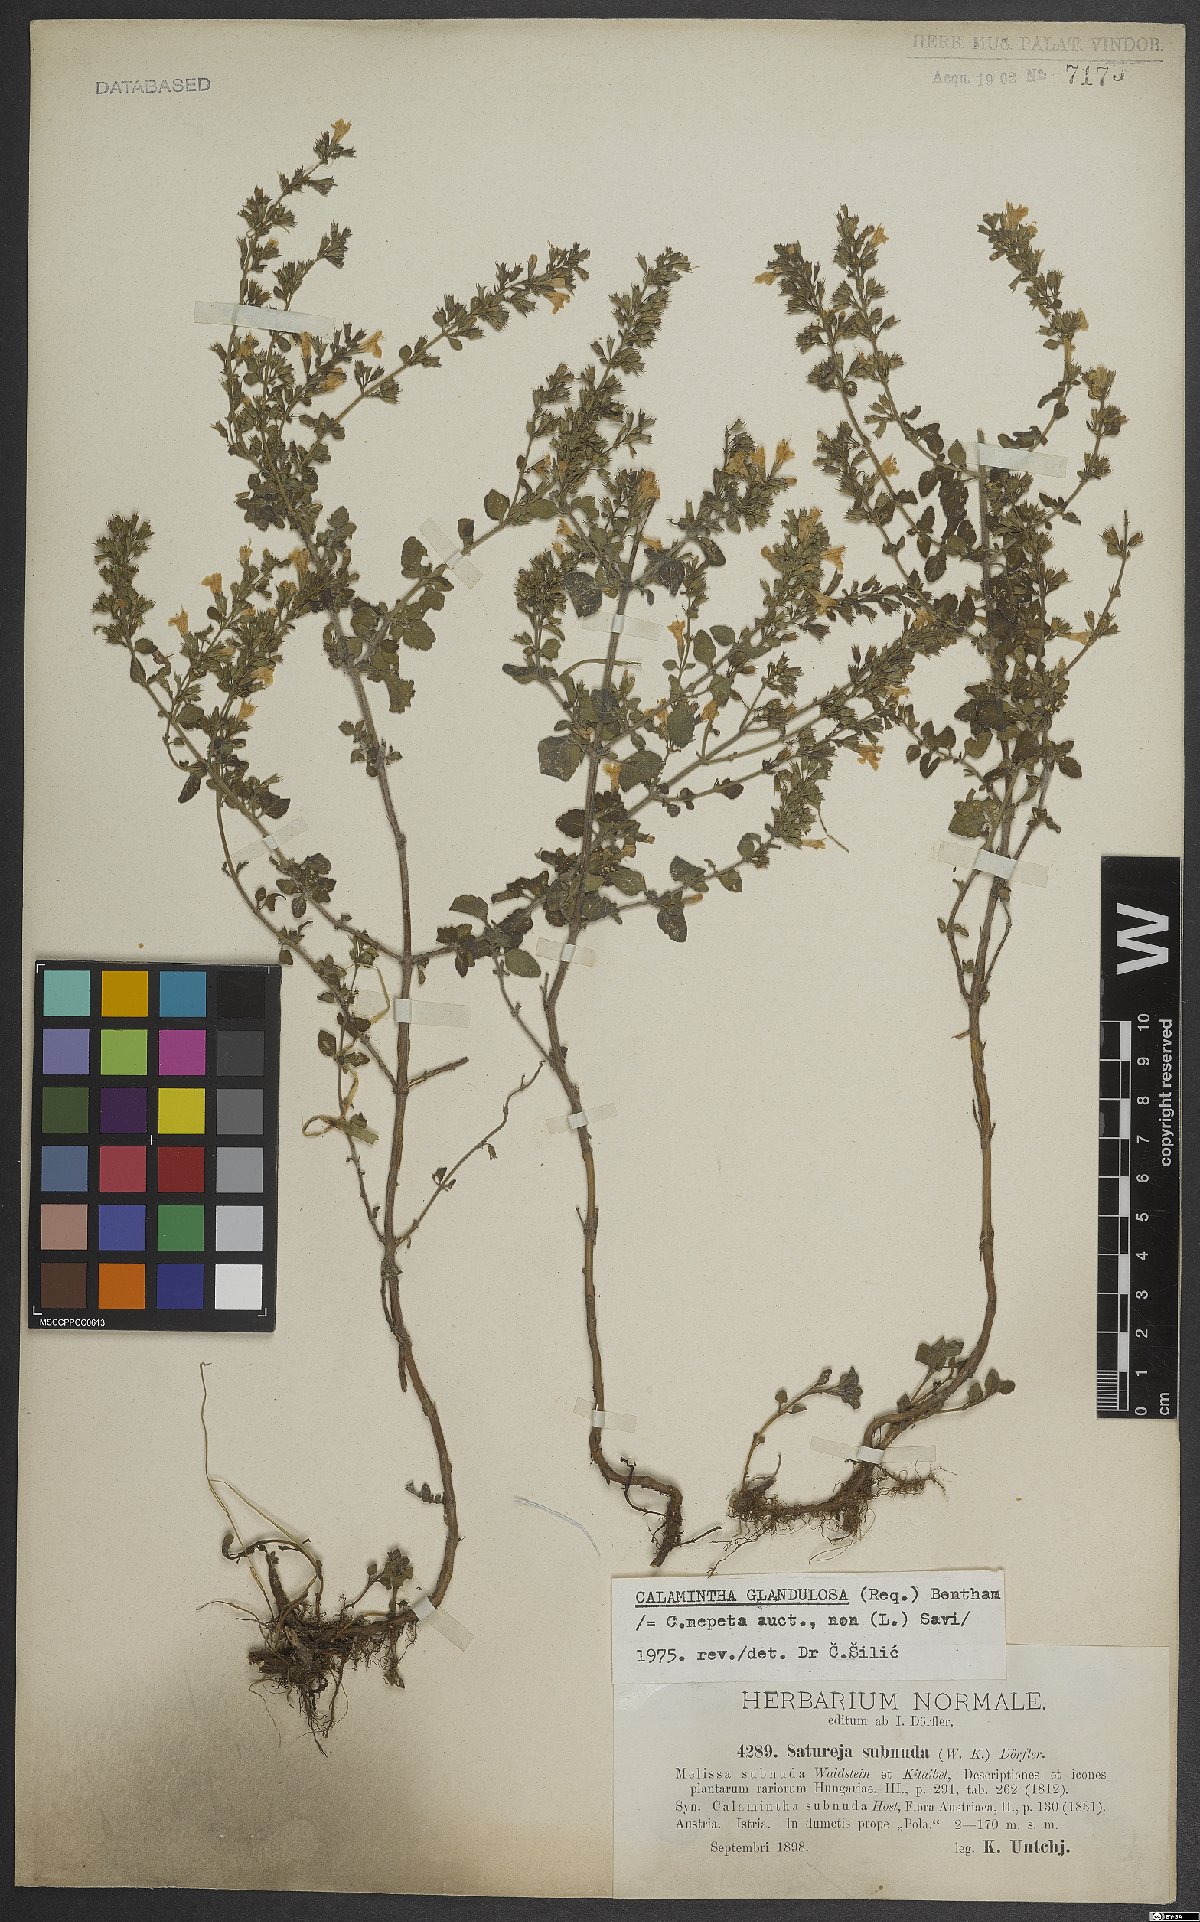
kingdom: Plantae
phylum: Tracheophyta
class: Magnoliopsida
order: Lamiales
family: Lamiaceae
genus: Clinopodium
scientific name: Clinopodium nepeta
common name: Lesser calamint
